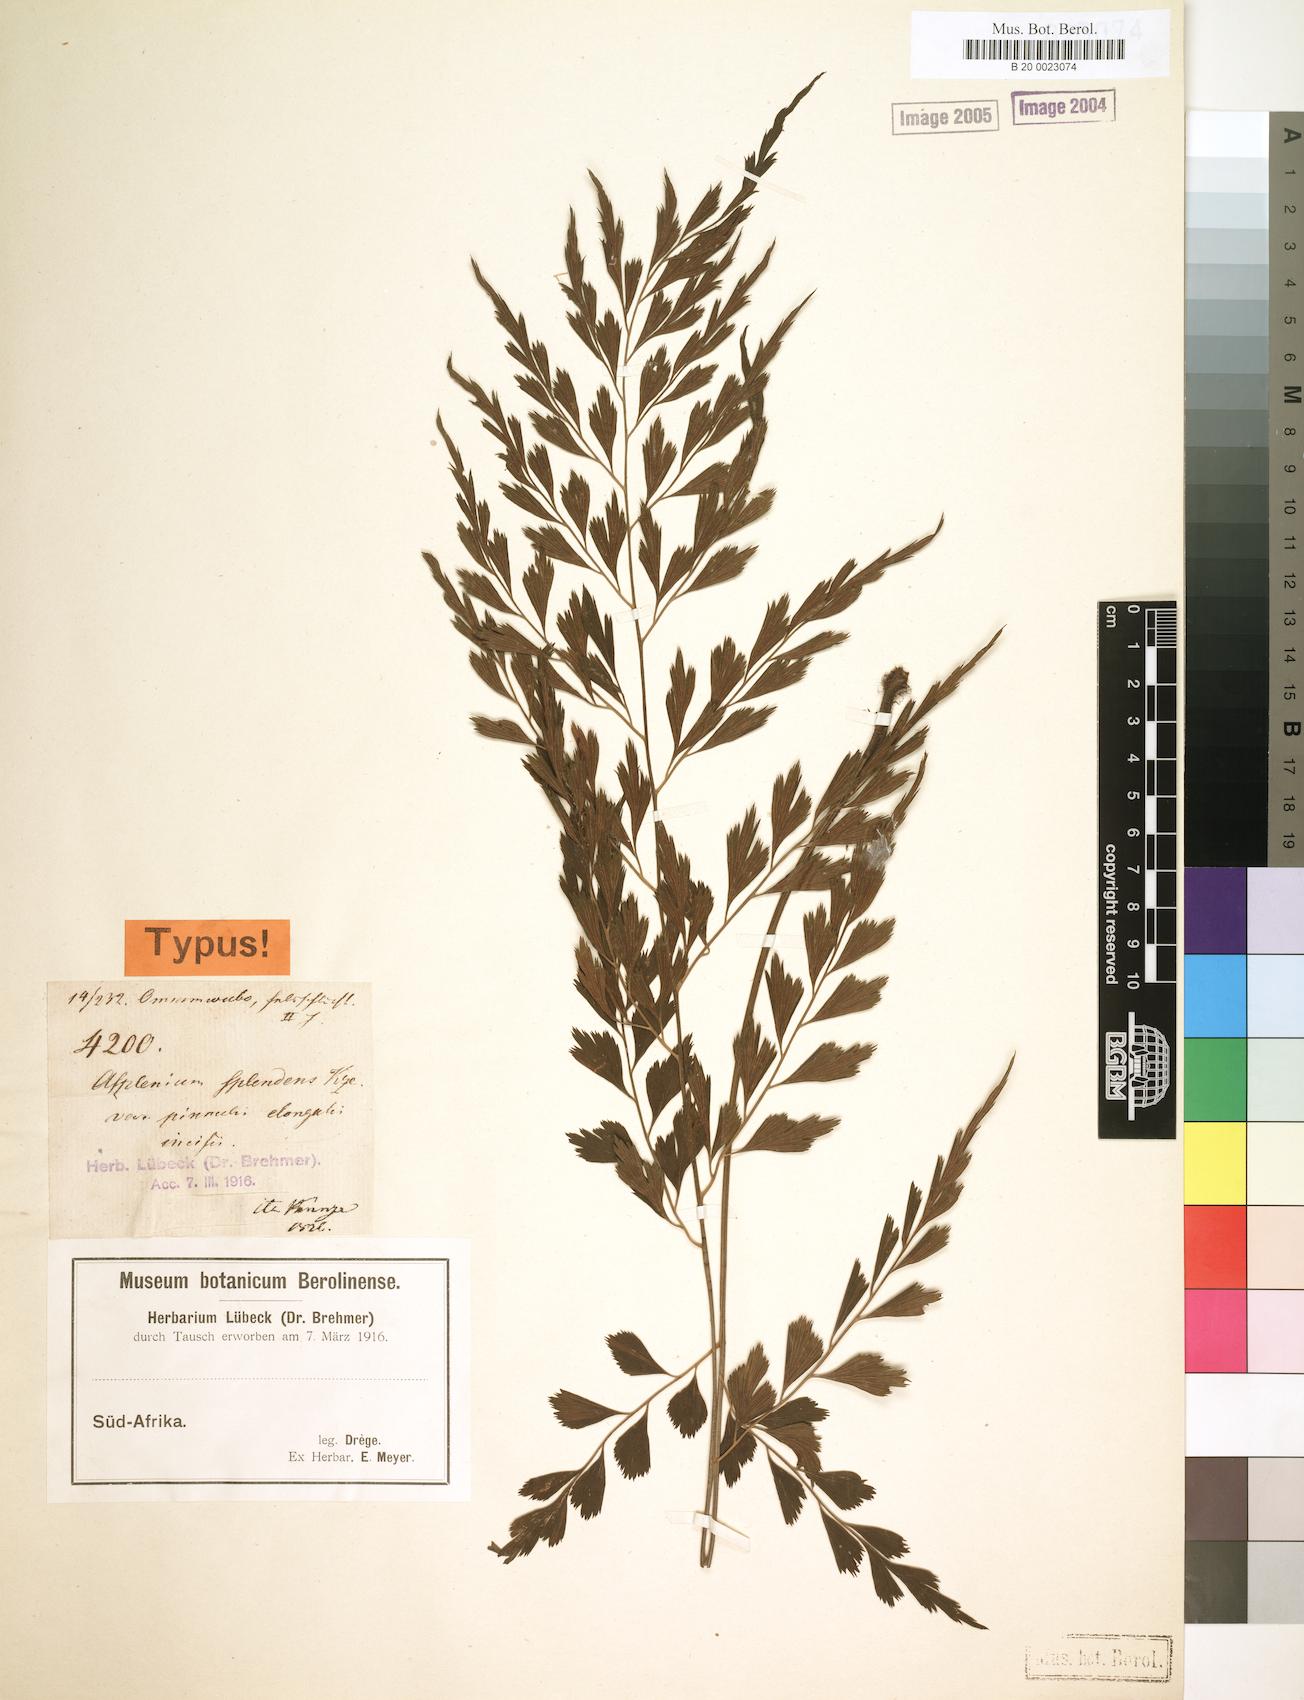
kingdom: Plantae
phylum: Tracheophyta
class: Polypodiopsida
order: Polypodiales
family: Aspleniaceae
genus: Asplenium
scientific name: Asplenium splendens
